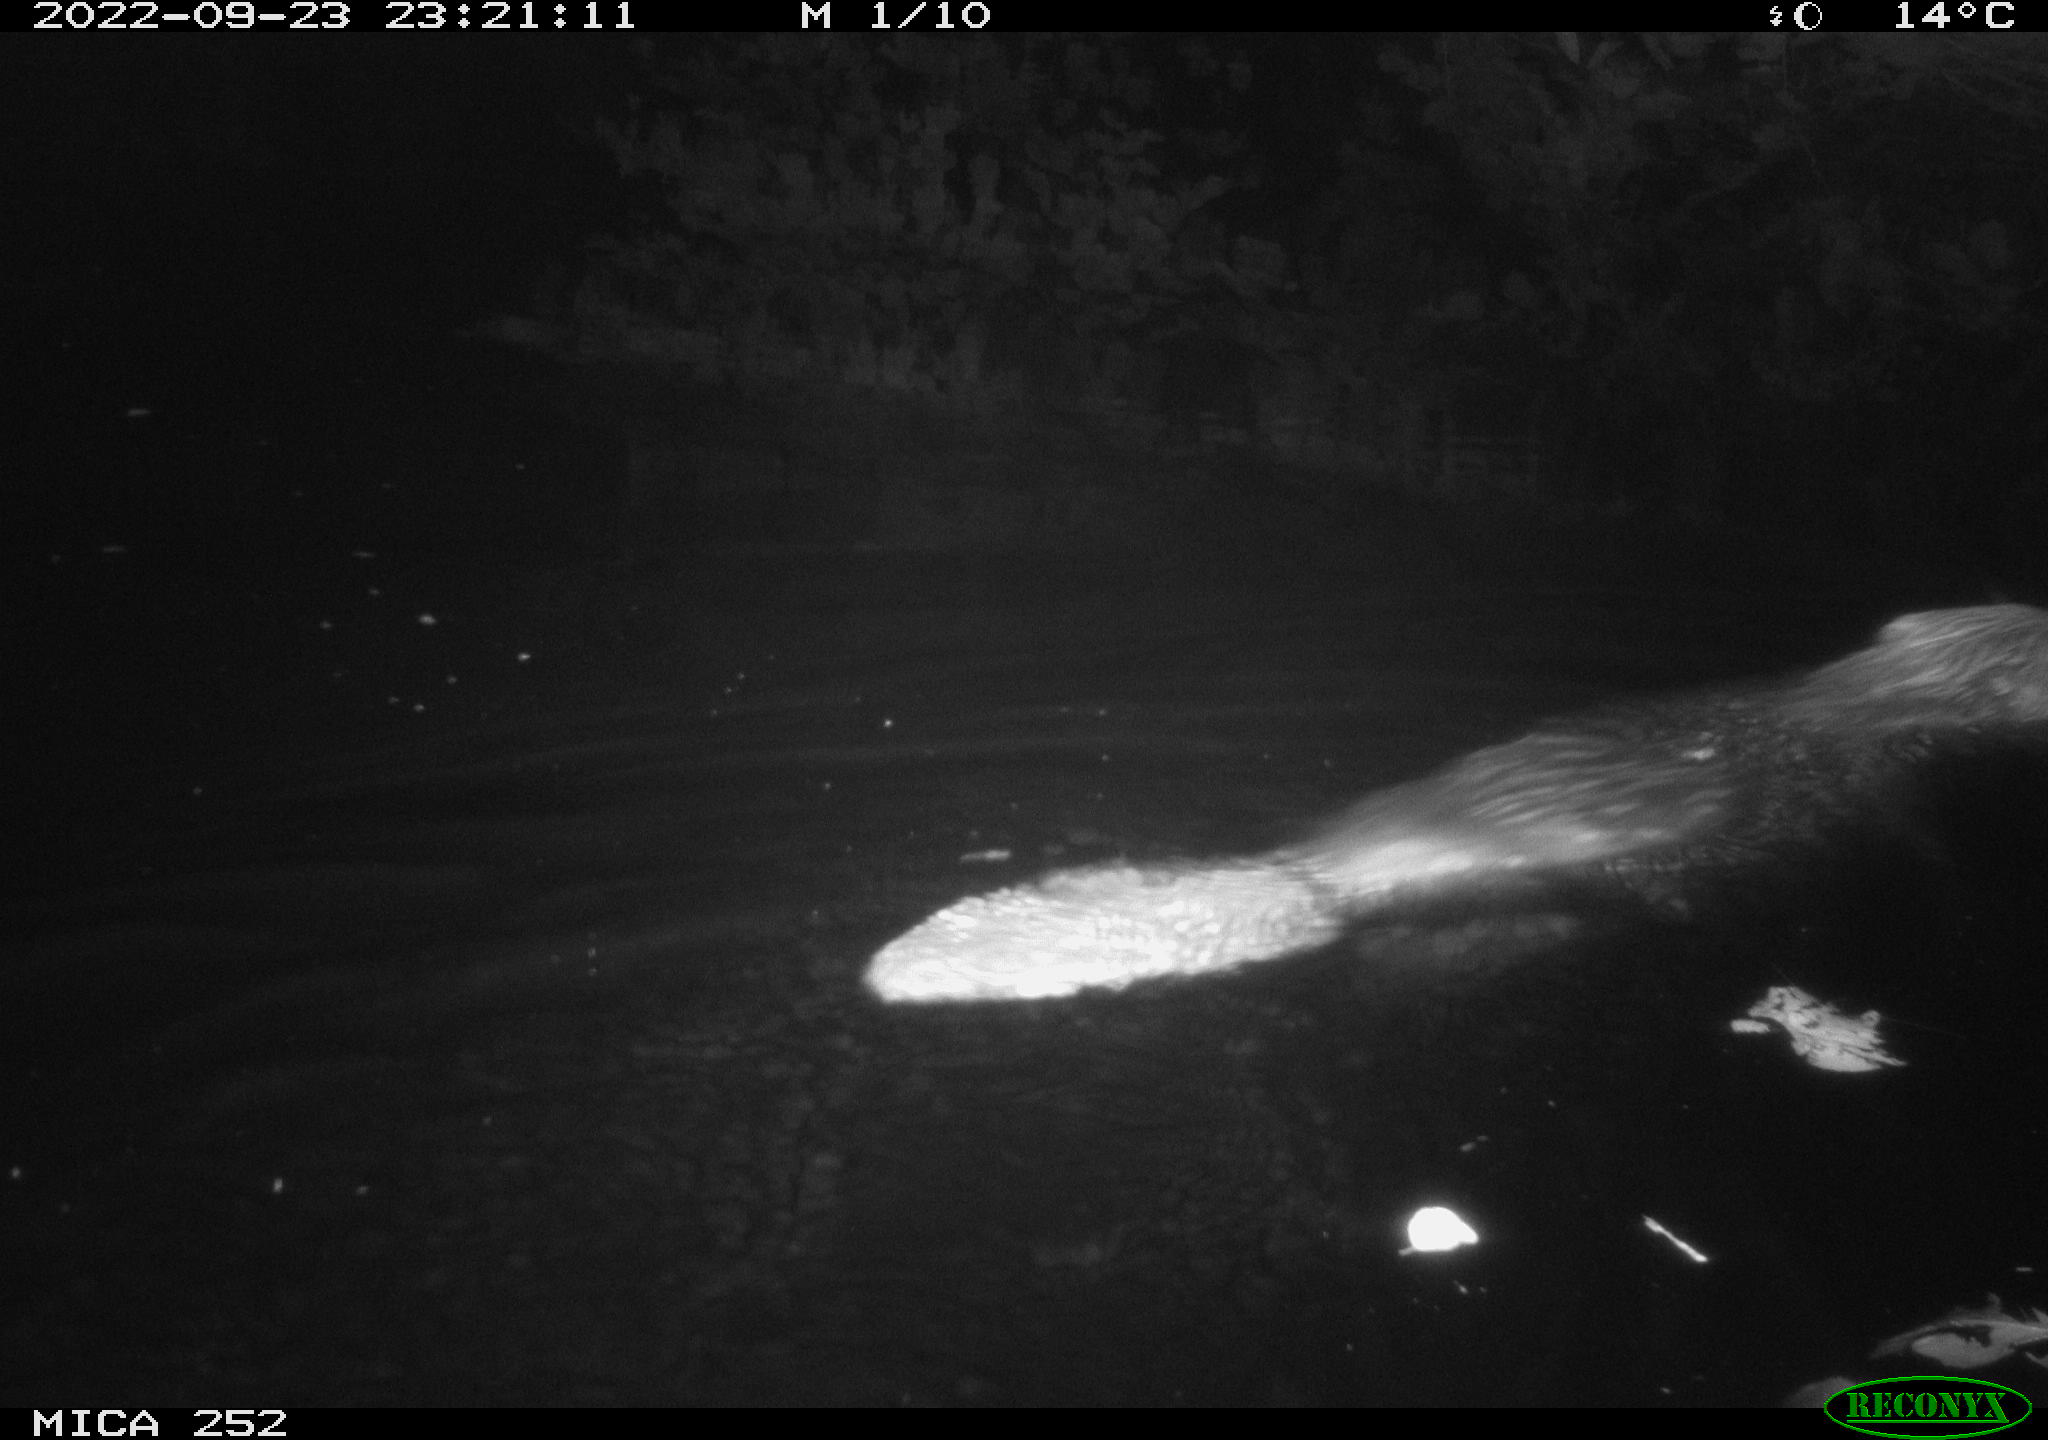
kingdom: Animalia
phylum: Chordata
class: Mammalia
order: Rodentia
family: Castoridae
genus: Castor
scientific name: Castor fiber
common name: Eurasian beaver
